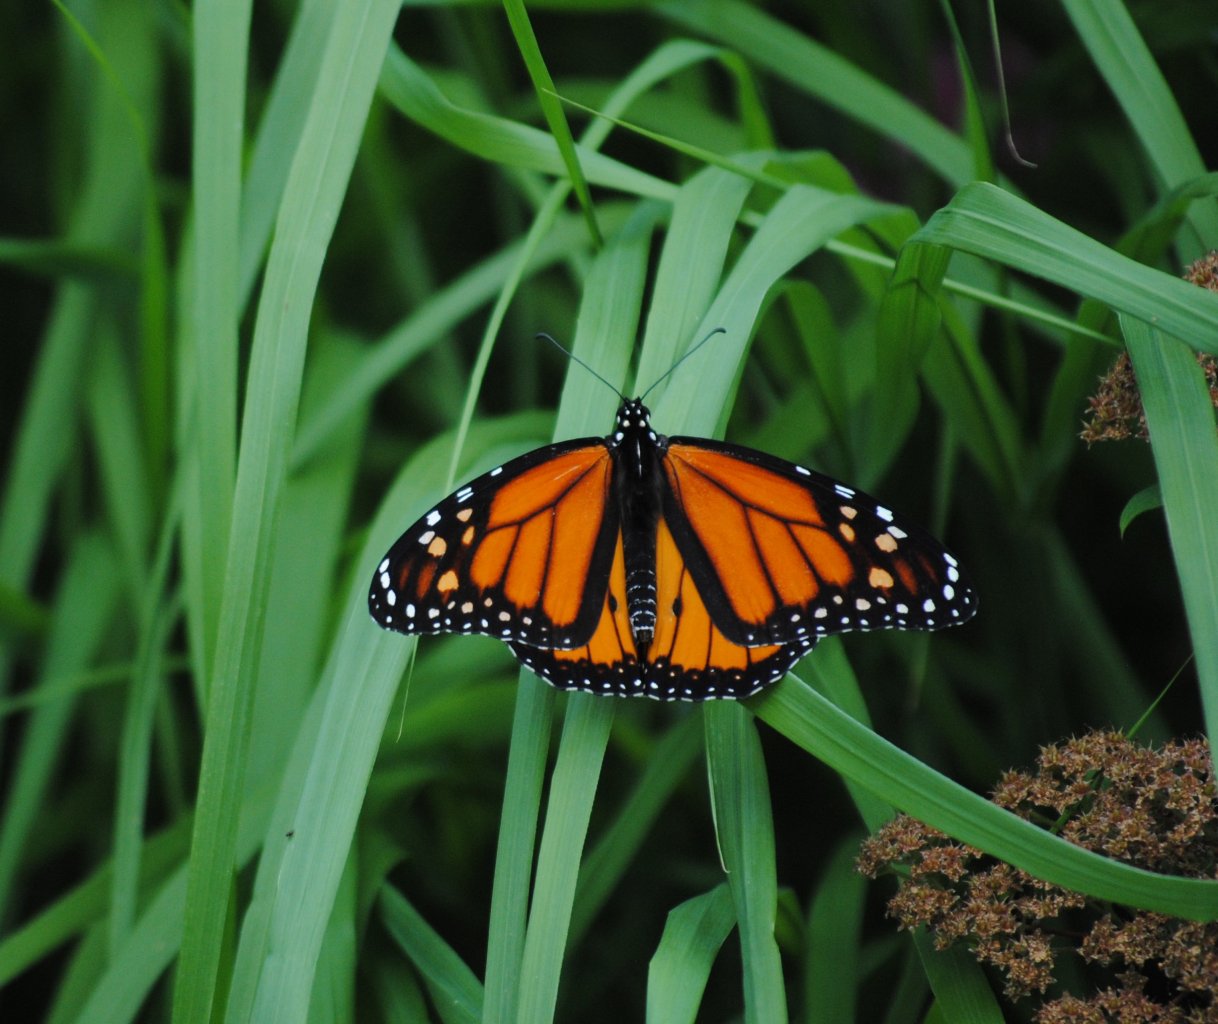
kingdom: Animalia
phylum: Arthropoda
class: Insecta
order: Lepidoptera
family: Nymphalidae
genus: Danaus
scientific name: Danaus plexippus
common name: Monarch
